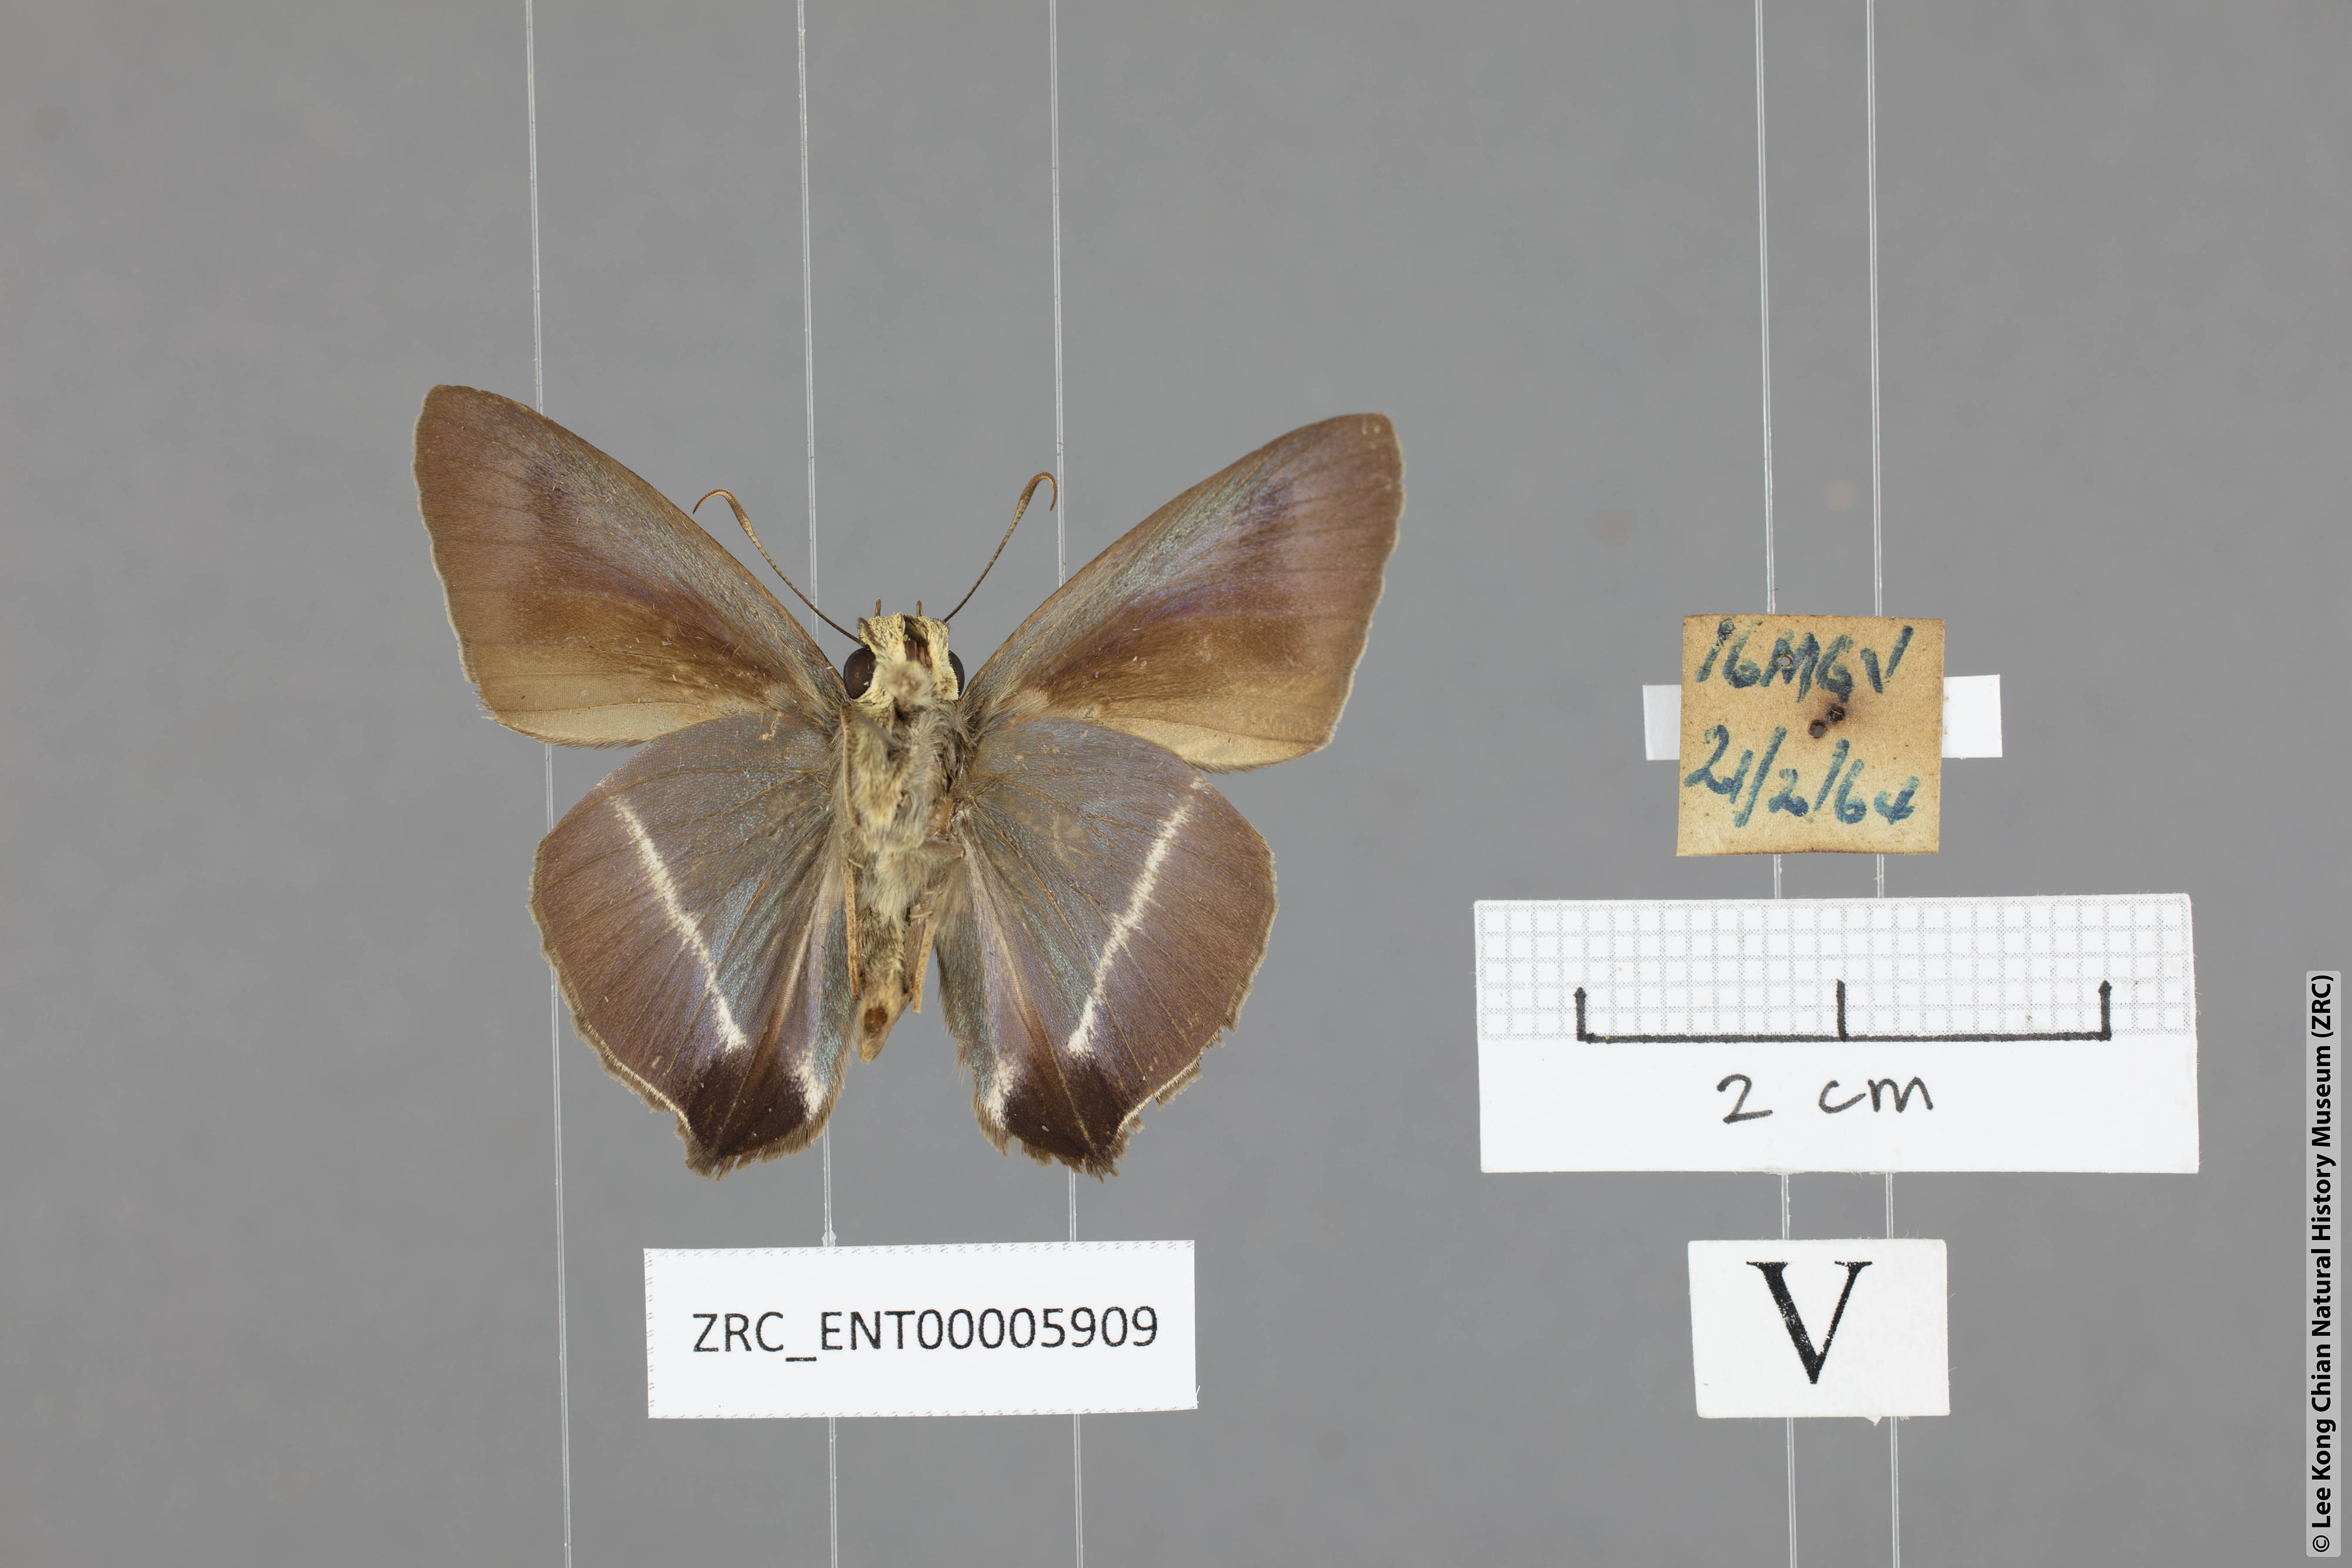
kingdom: Animalia
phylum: Arthropoda
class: Insecta
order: Lepidoptera
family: Hesperiidae
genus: Hasora
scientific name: Hasora taminatus
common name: White banded awl
